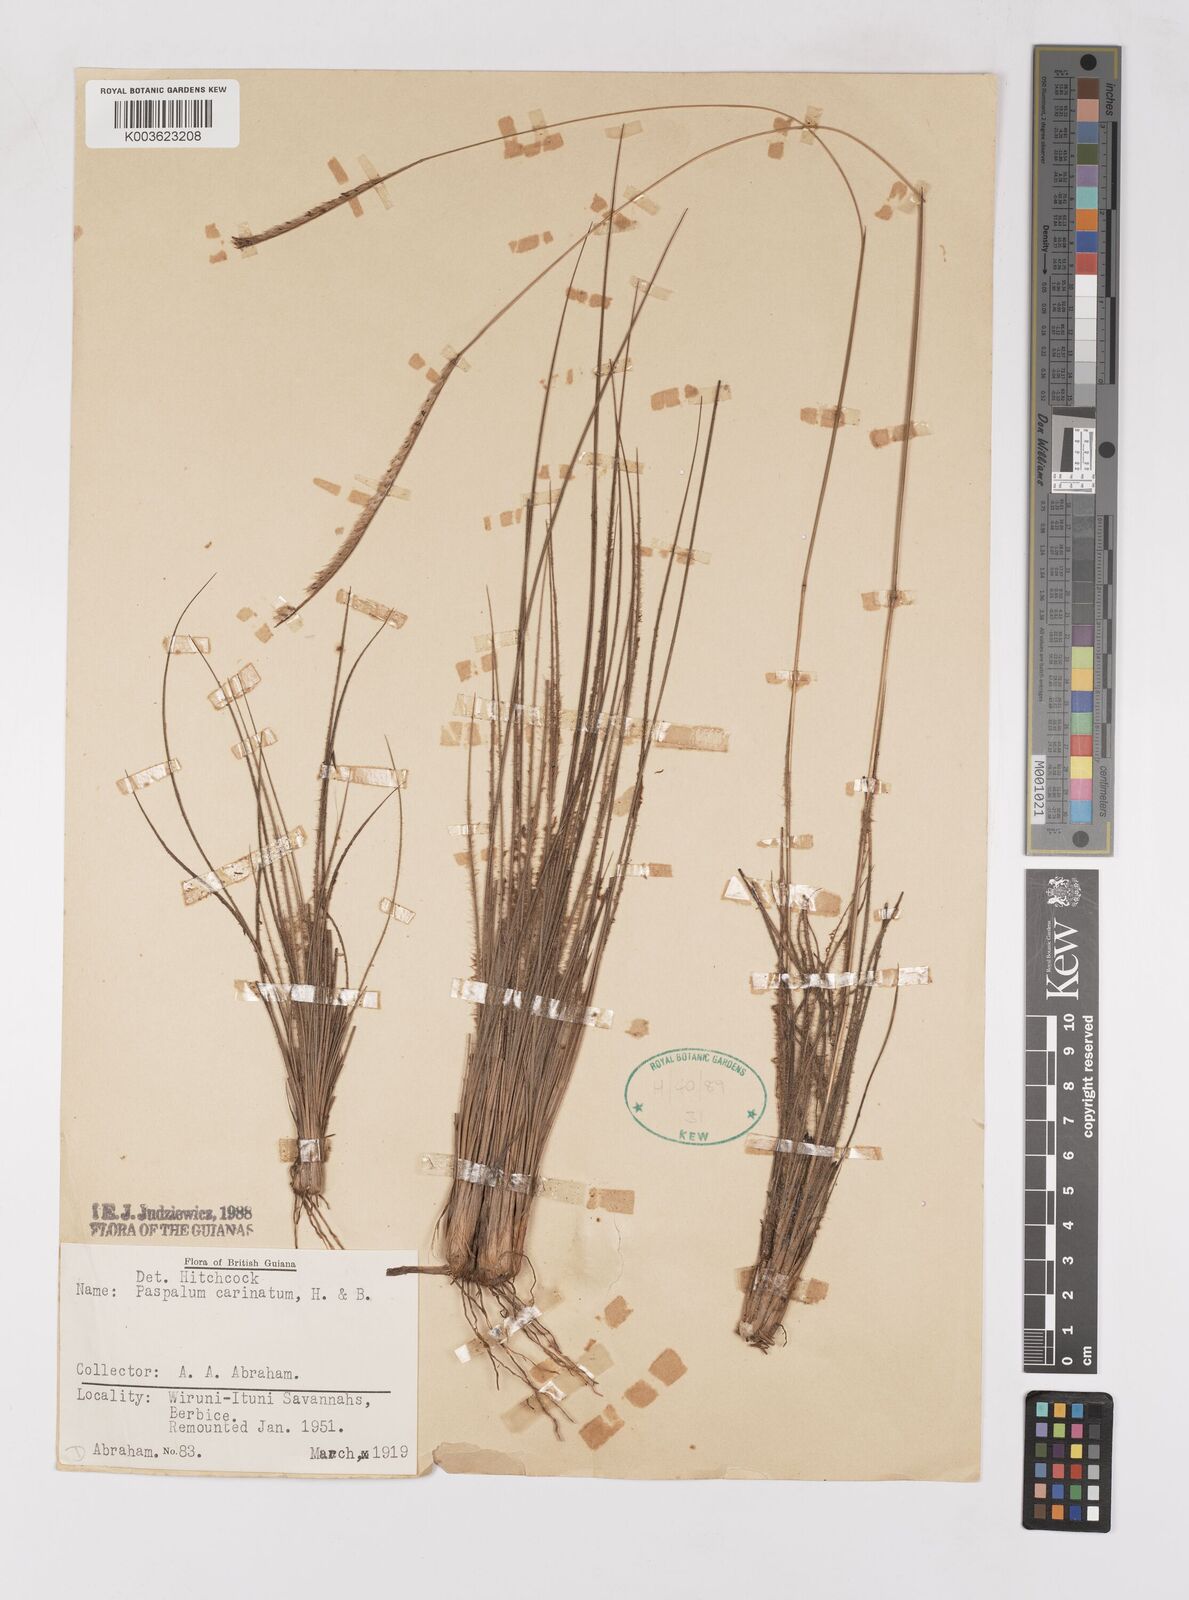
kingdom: Plantae
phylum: Tracheophyta
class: Liliopsida
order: Poales
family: Poaceae
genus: Paspalum
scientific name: Paspalum carinatum
